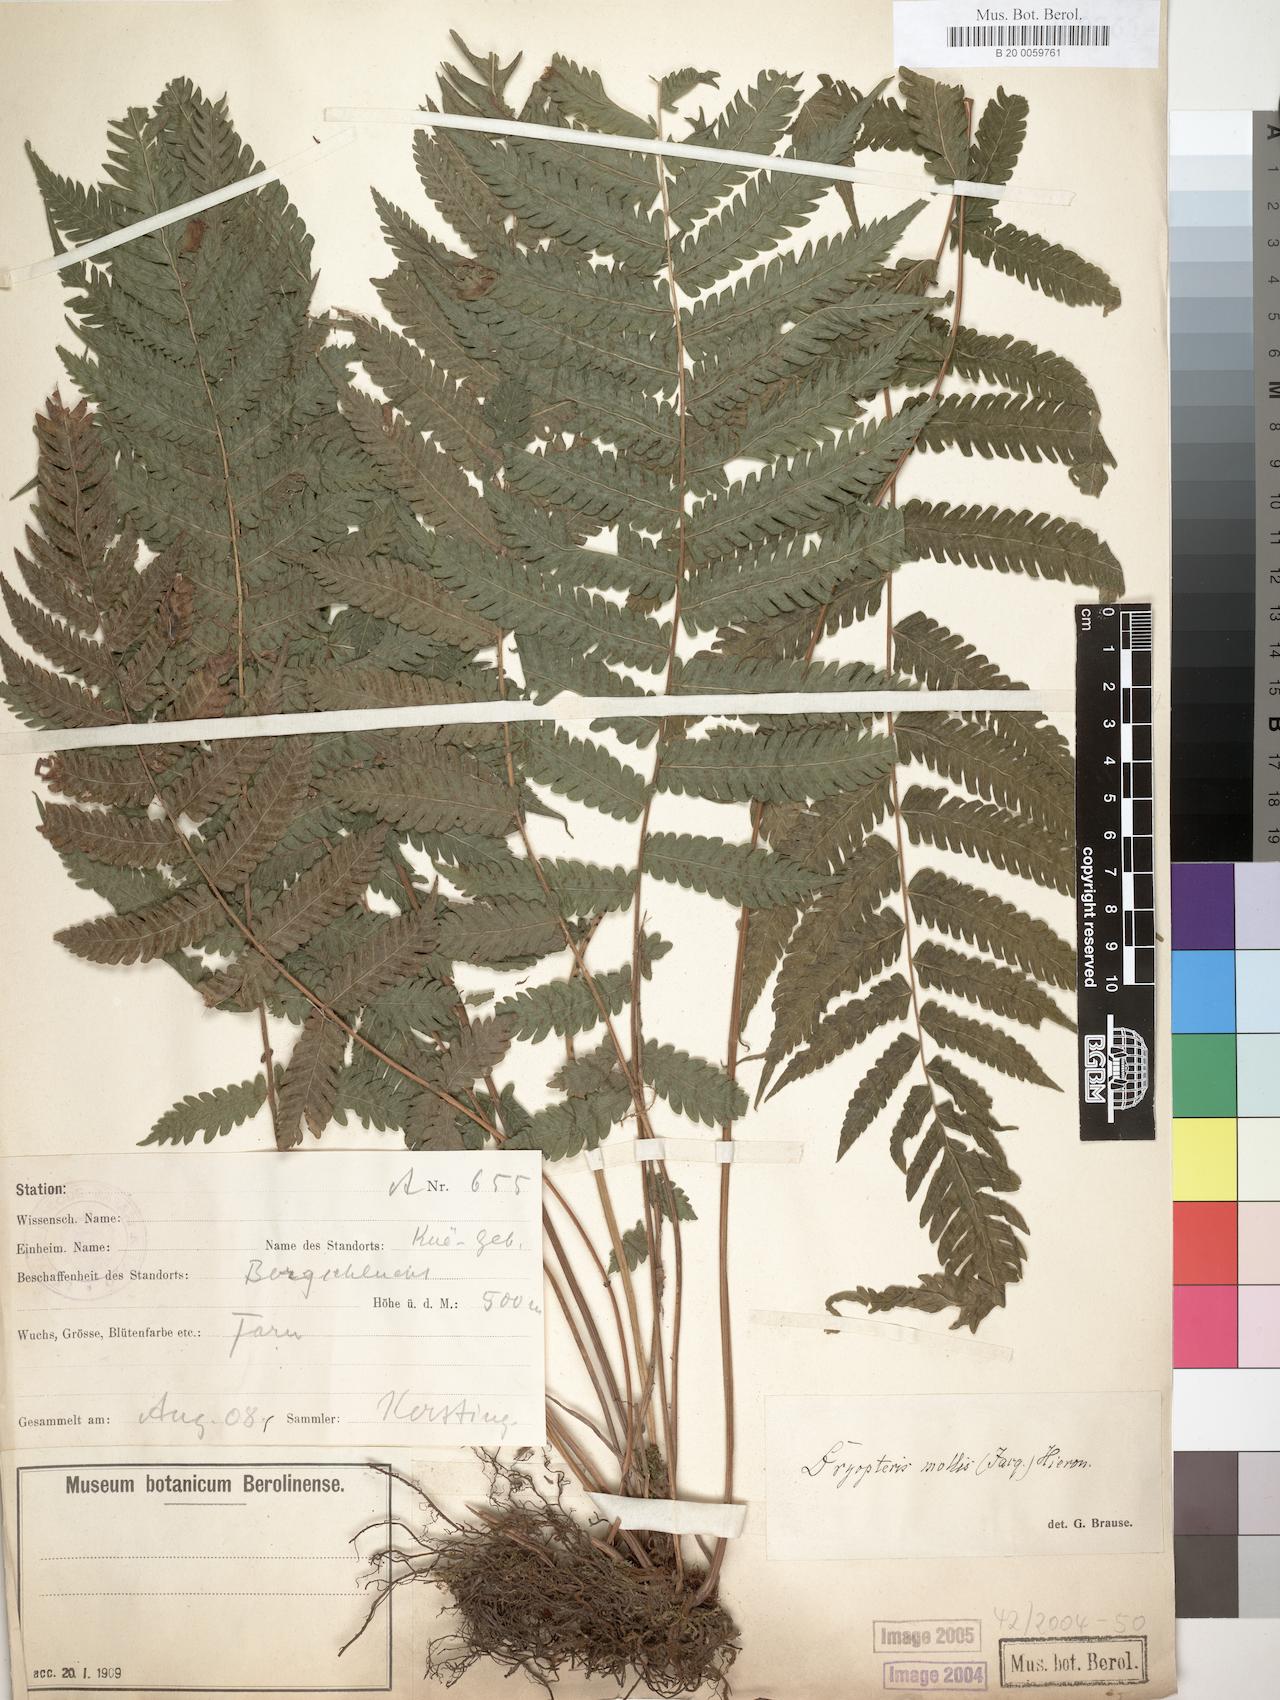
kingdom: Plantae
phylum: Tracheophyta
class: Polypodiopsida
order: Polypodiales
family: Thelypteridaceae
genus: Christella
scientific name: Christella dentata
